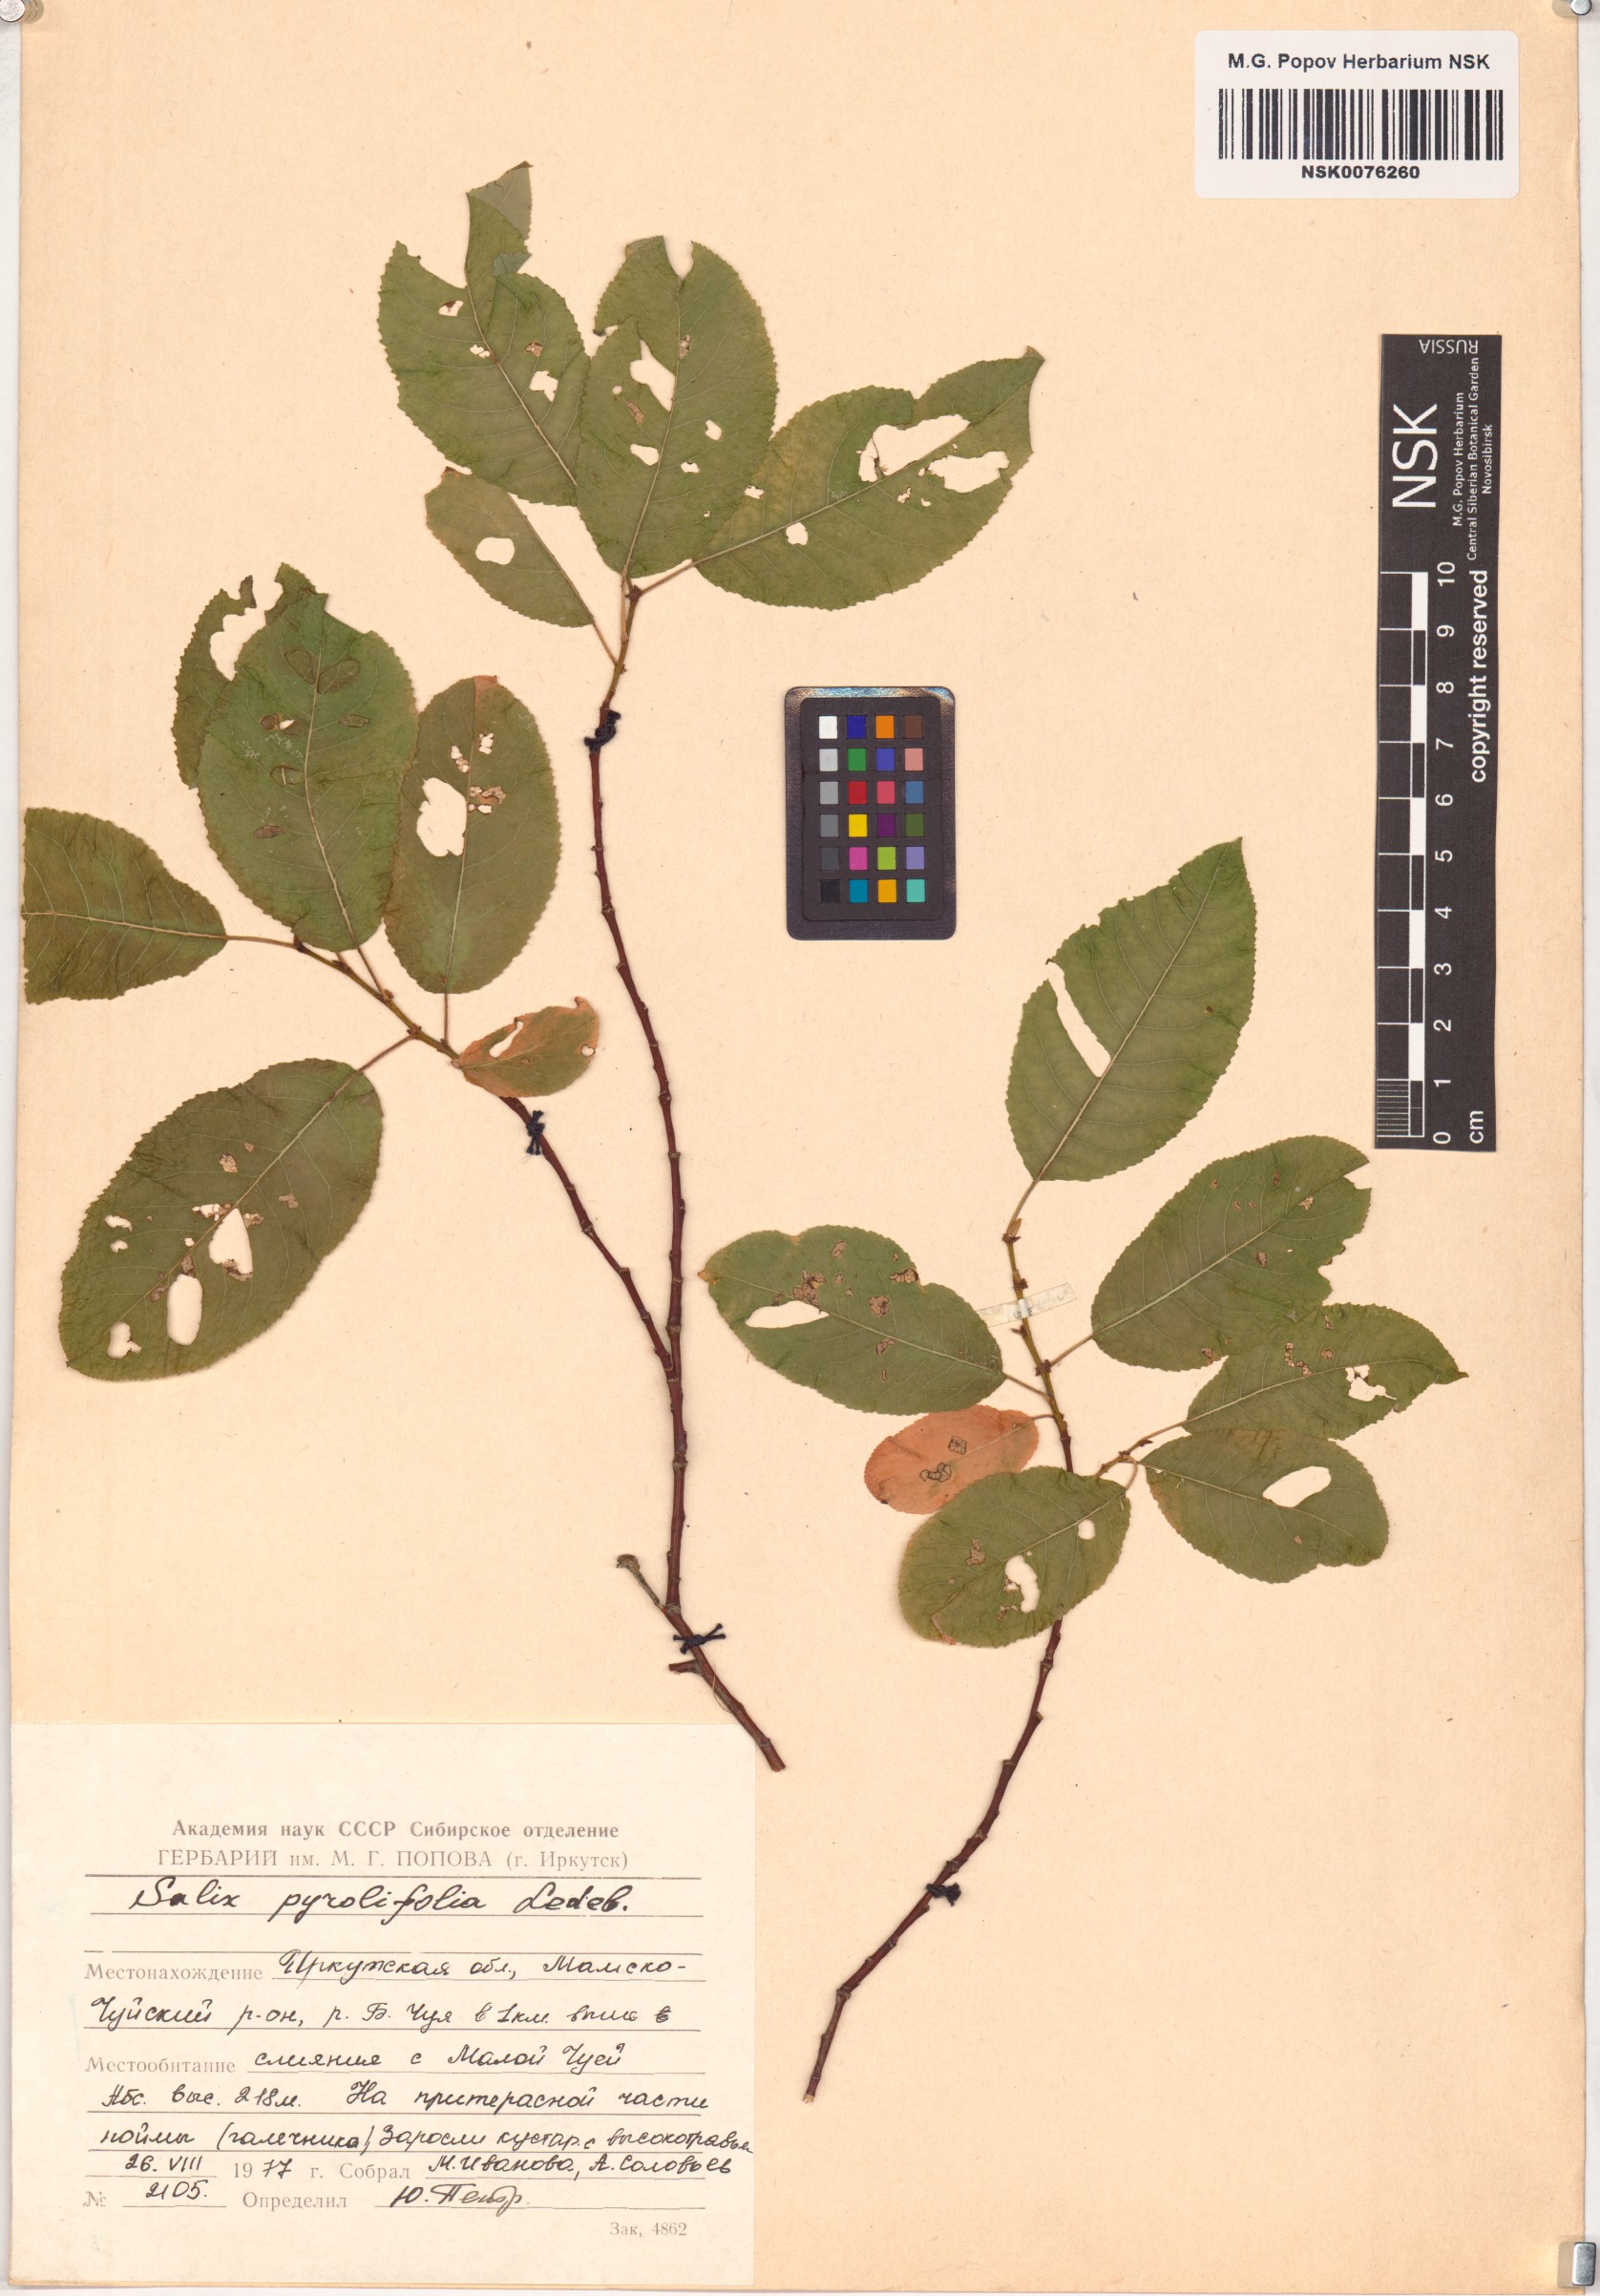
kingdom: Plantae
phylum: Tracheophyta
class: Magnoliopsida
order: Malpighiales
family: Salicaceae
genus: Salix
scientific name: Salix pyrolifolia
